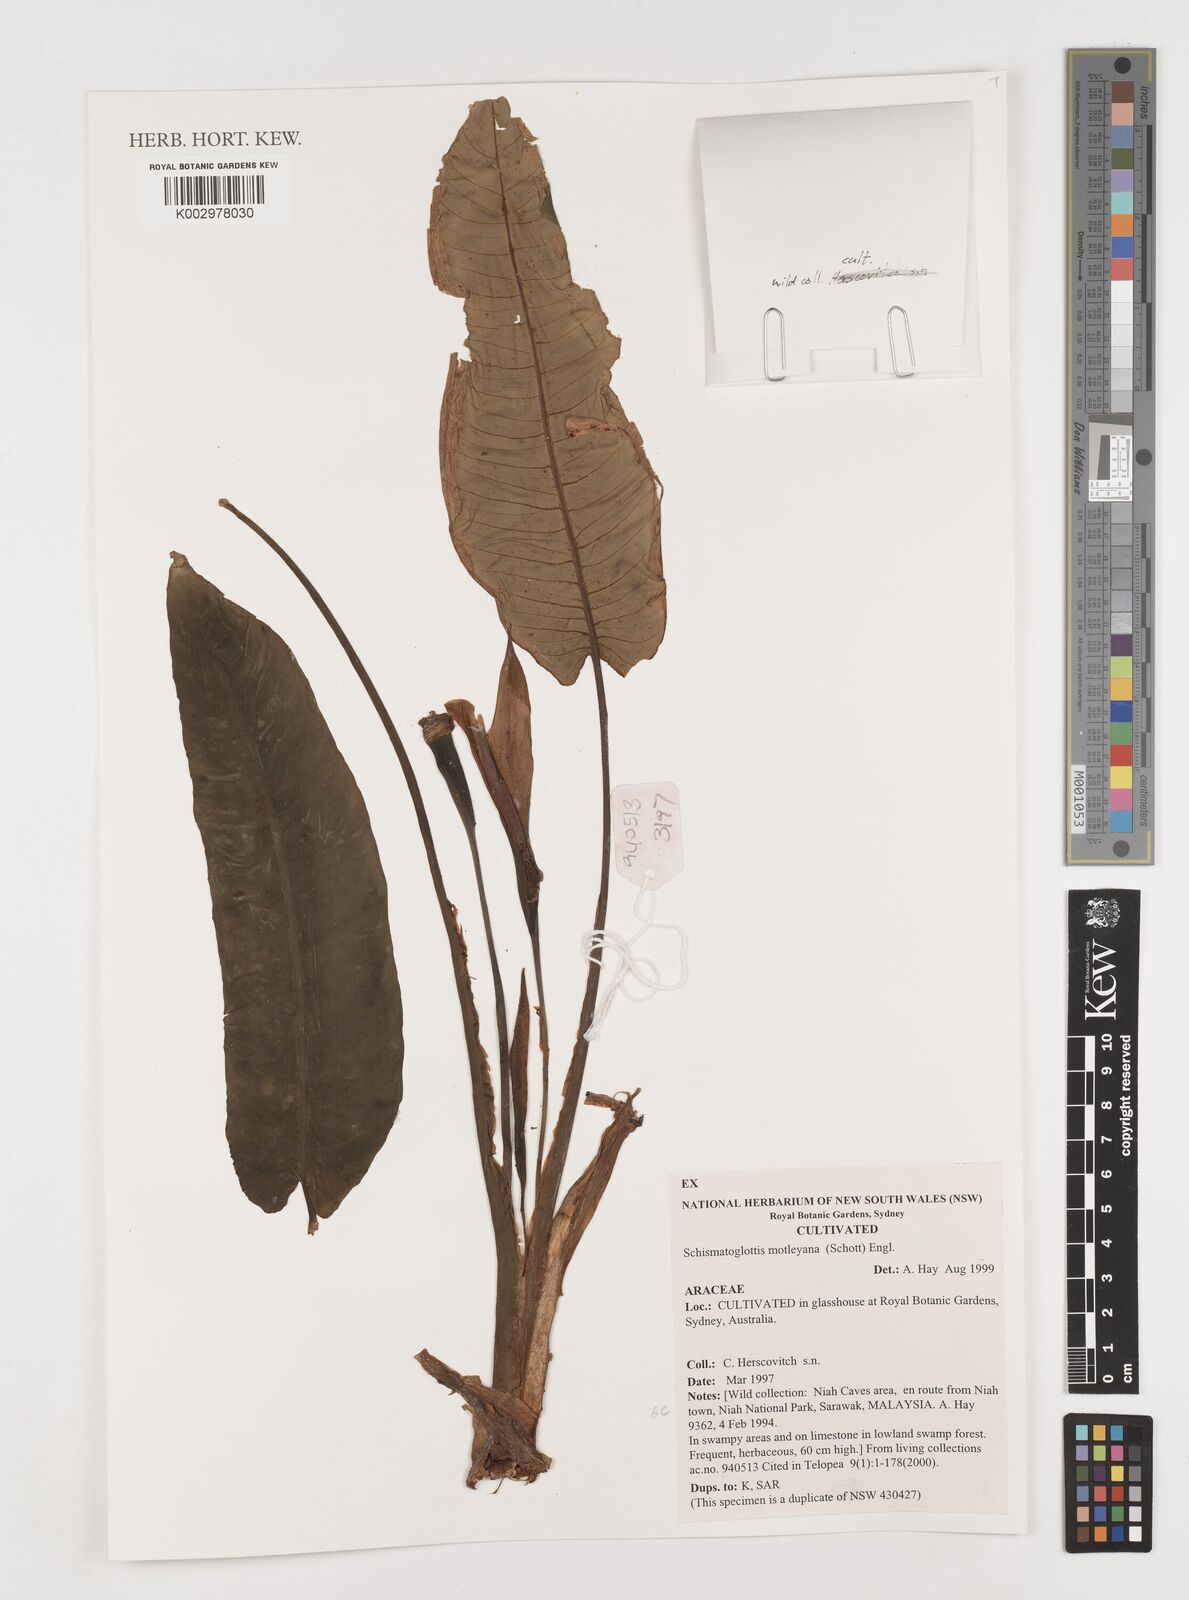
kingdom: Plantae
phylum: Tracheophyta
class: Liliopsida
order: Alismatales
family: Araceae
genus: Schismatoglottis
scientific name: Schismatoglottis motleyana
